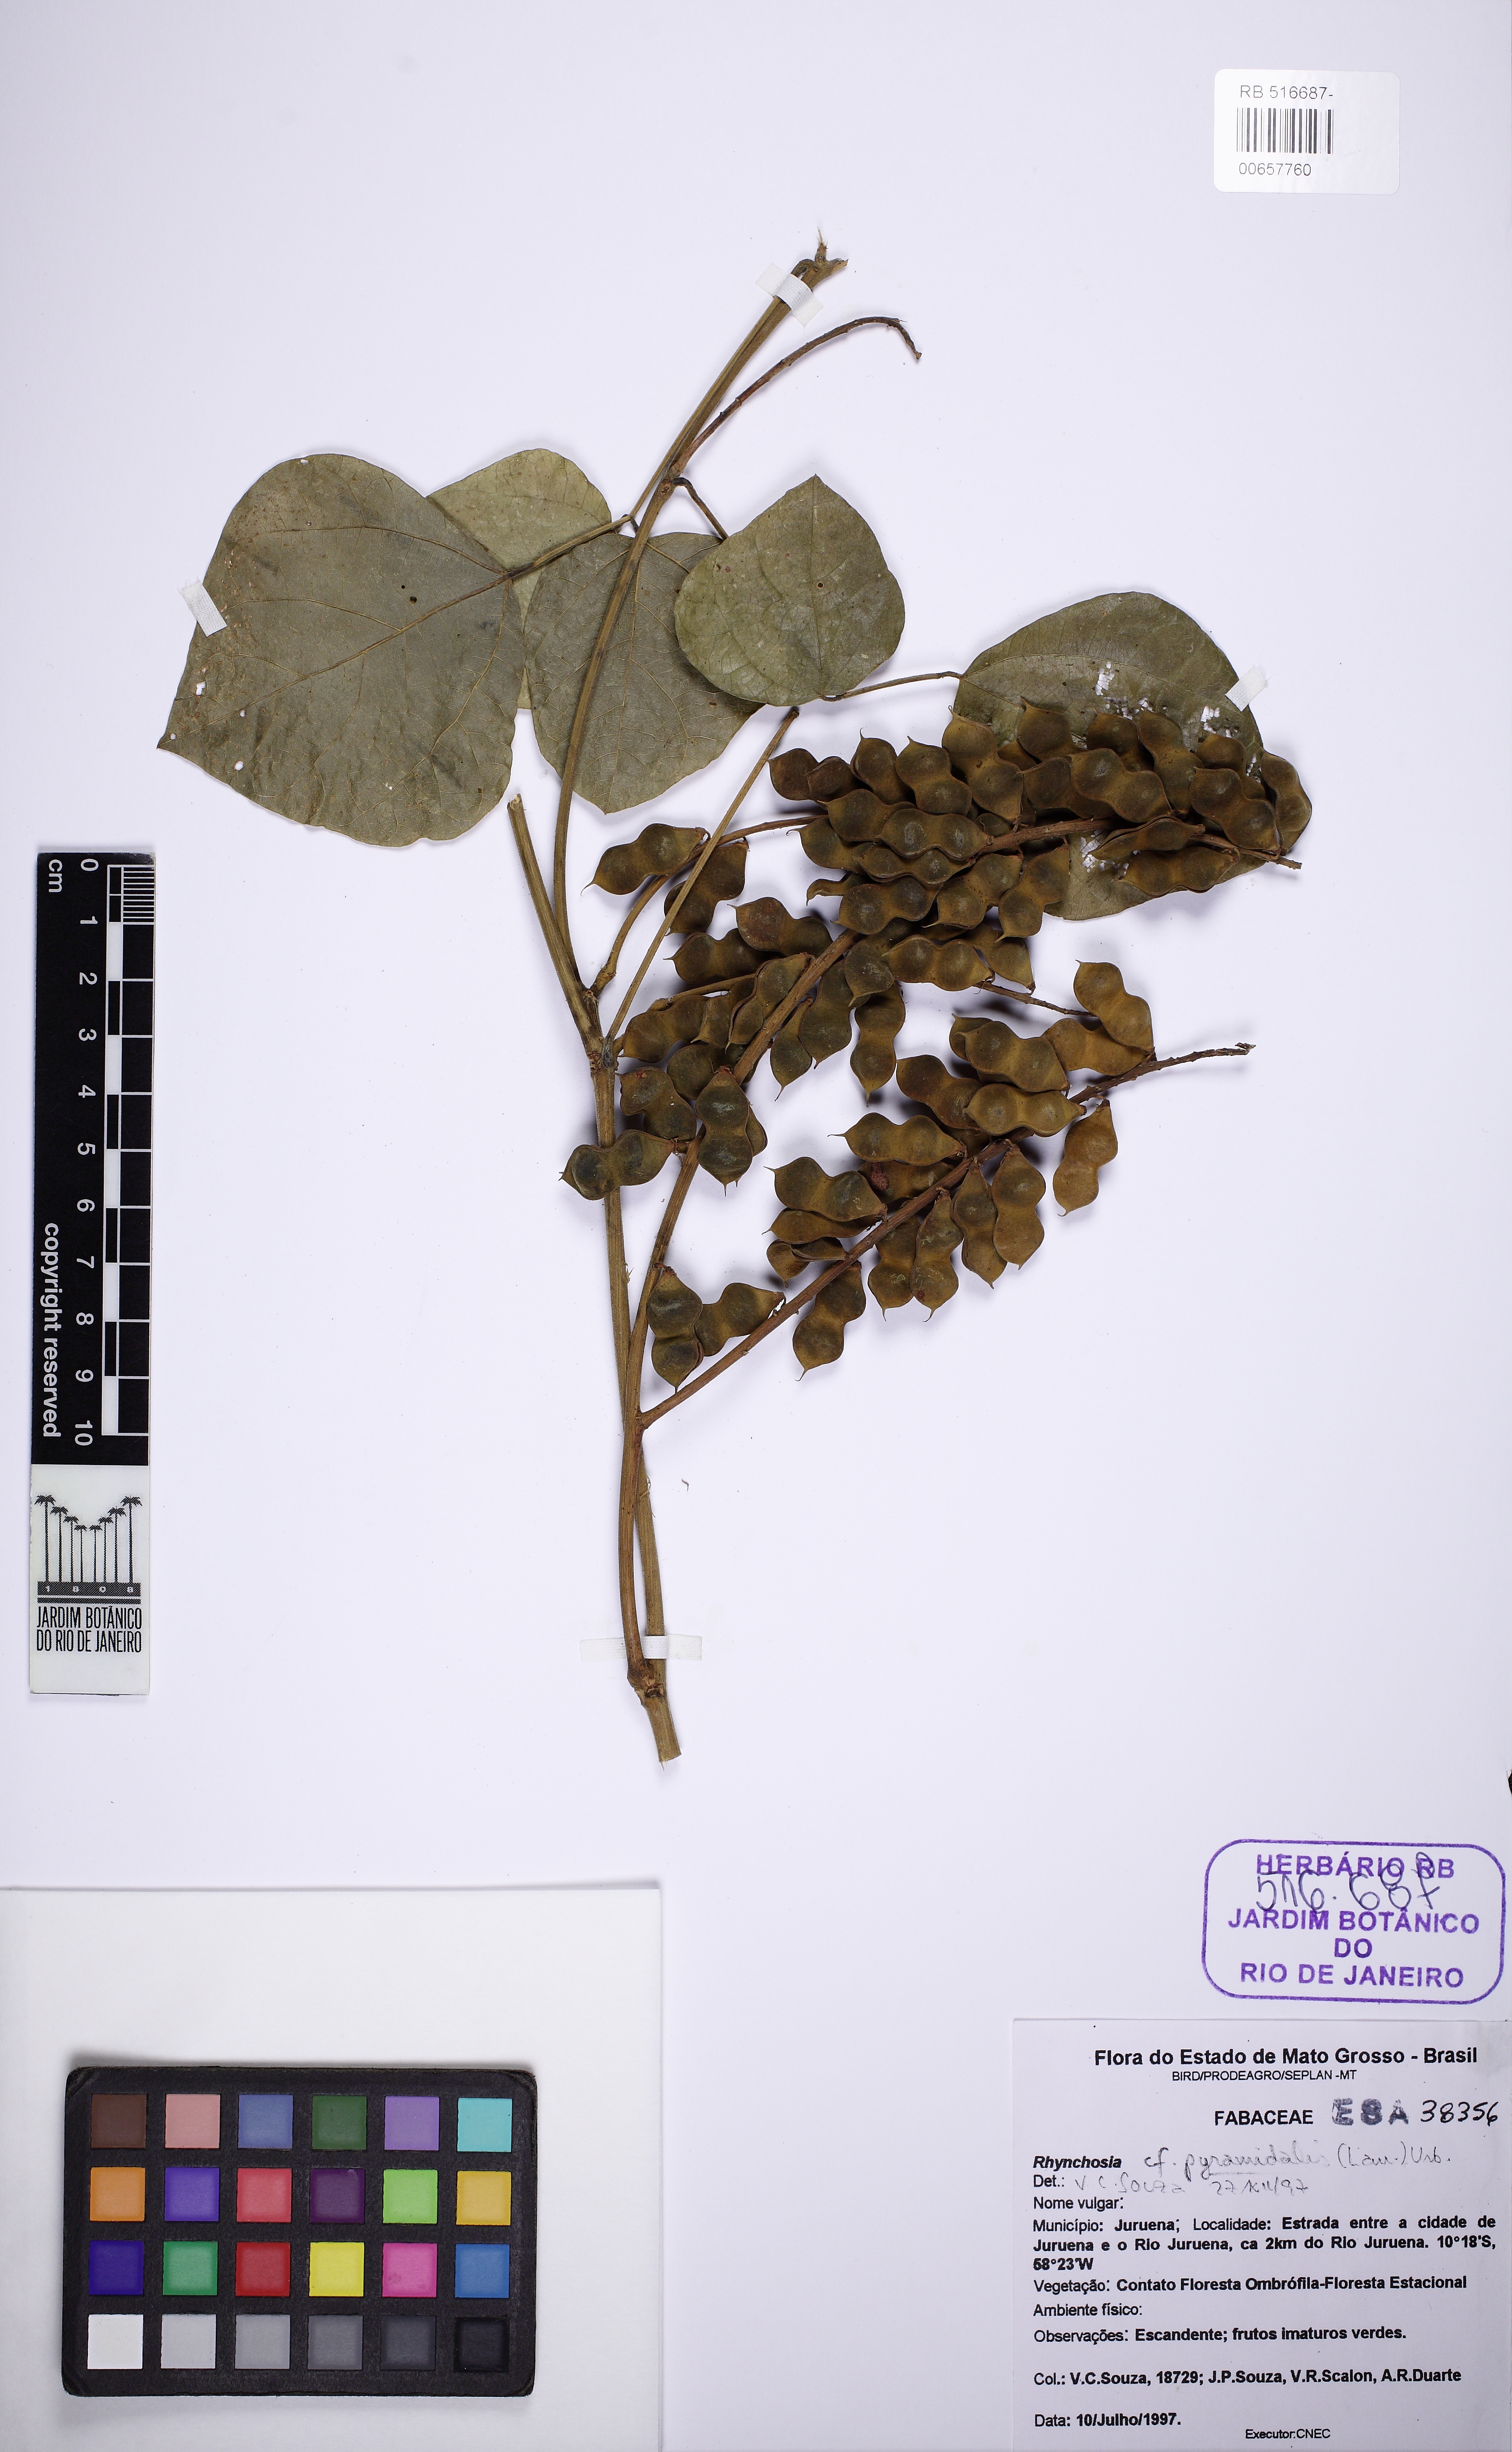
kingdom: Plantae
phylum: Tracheophyta
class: Magnoliopsida
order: Fabales
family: Fabaceae
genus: Rhynchosia
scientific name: Rhynchosia pyramidalis
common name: Virility-vine
